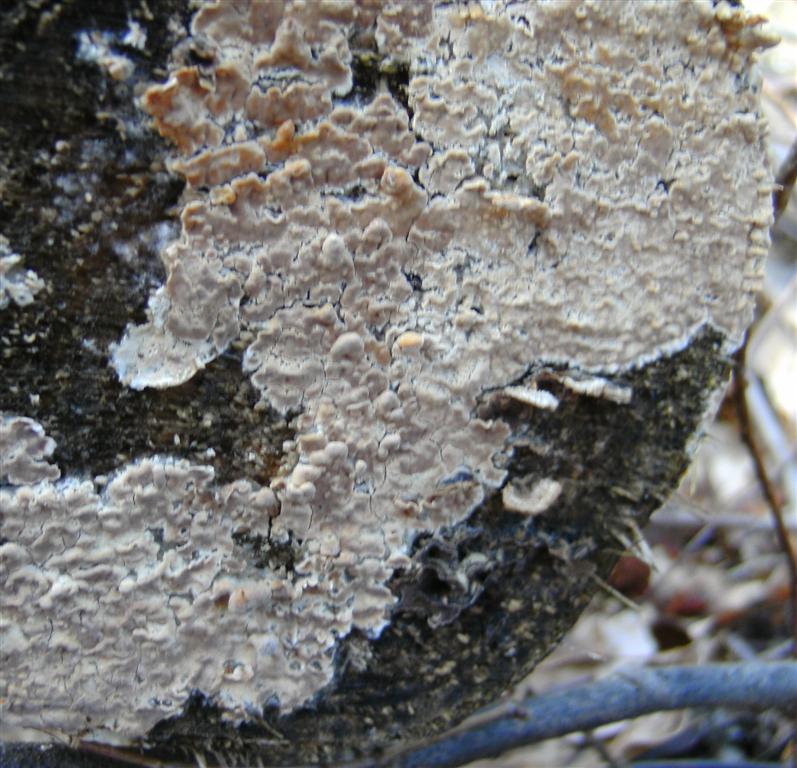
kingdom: Fungi
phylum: Basidiomycota
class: Agaricomycetes
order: Agaricales
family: Physalacriaceae
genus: Cylindrobasidium
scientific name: Cylindrobasidium evolvens
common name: sprækkehinde
